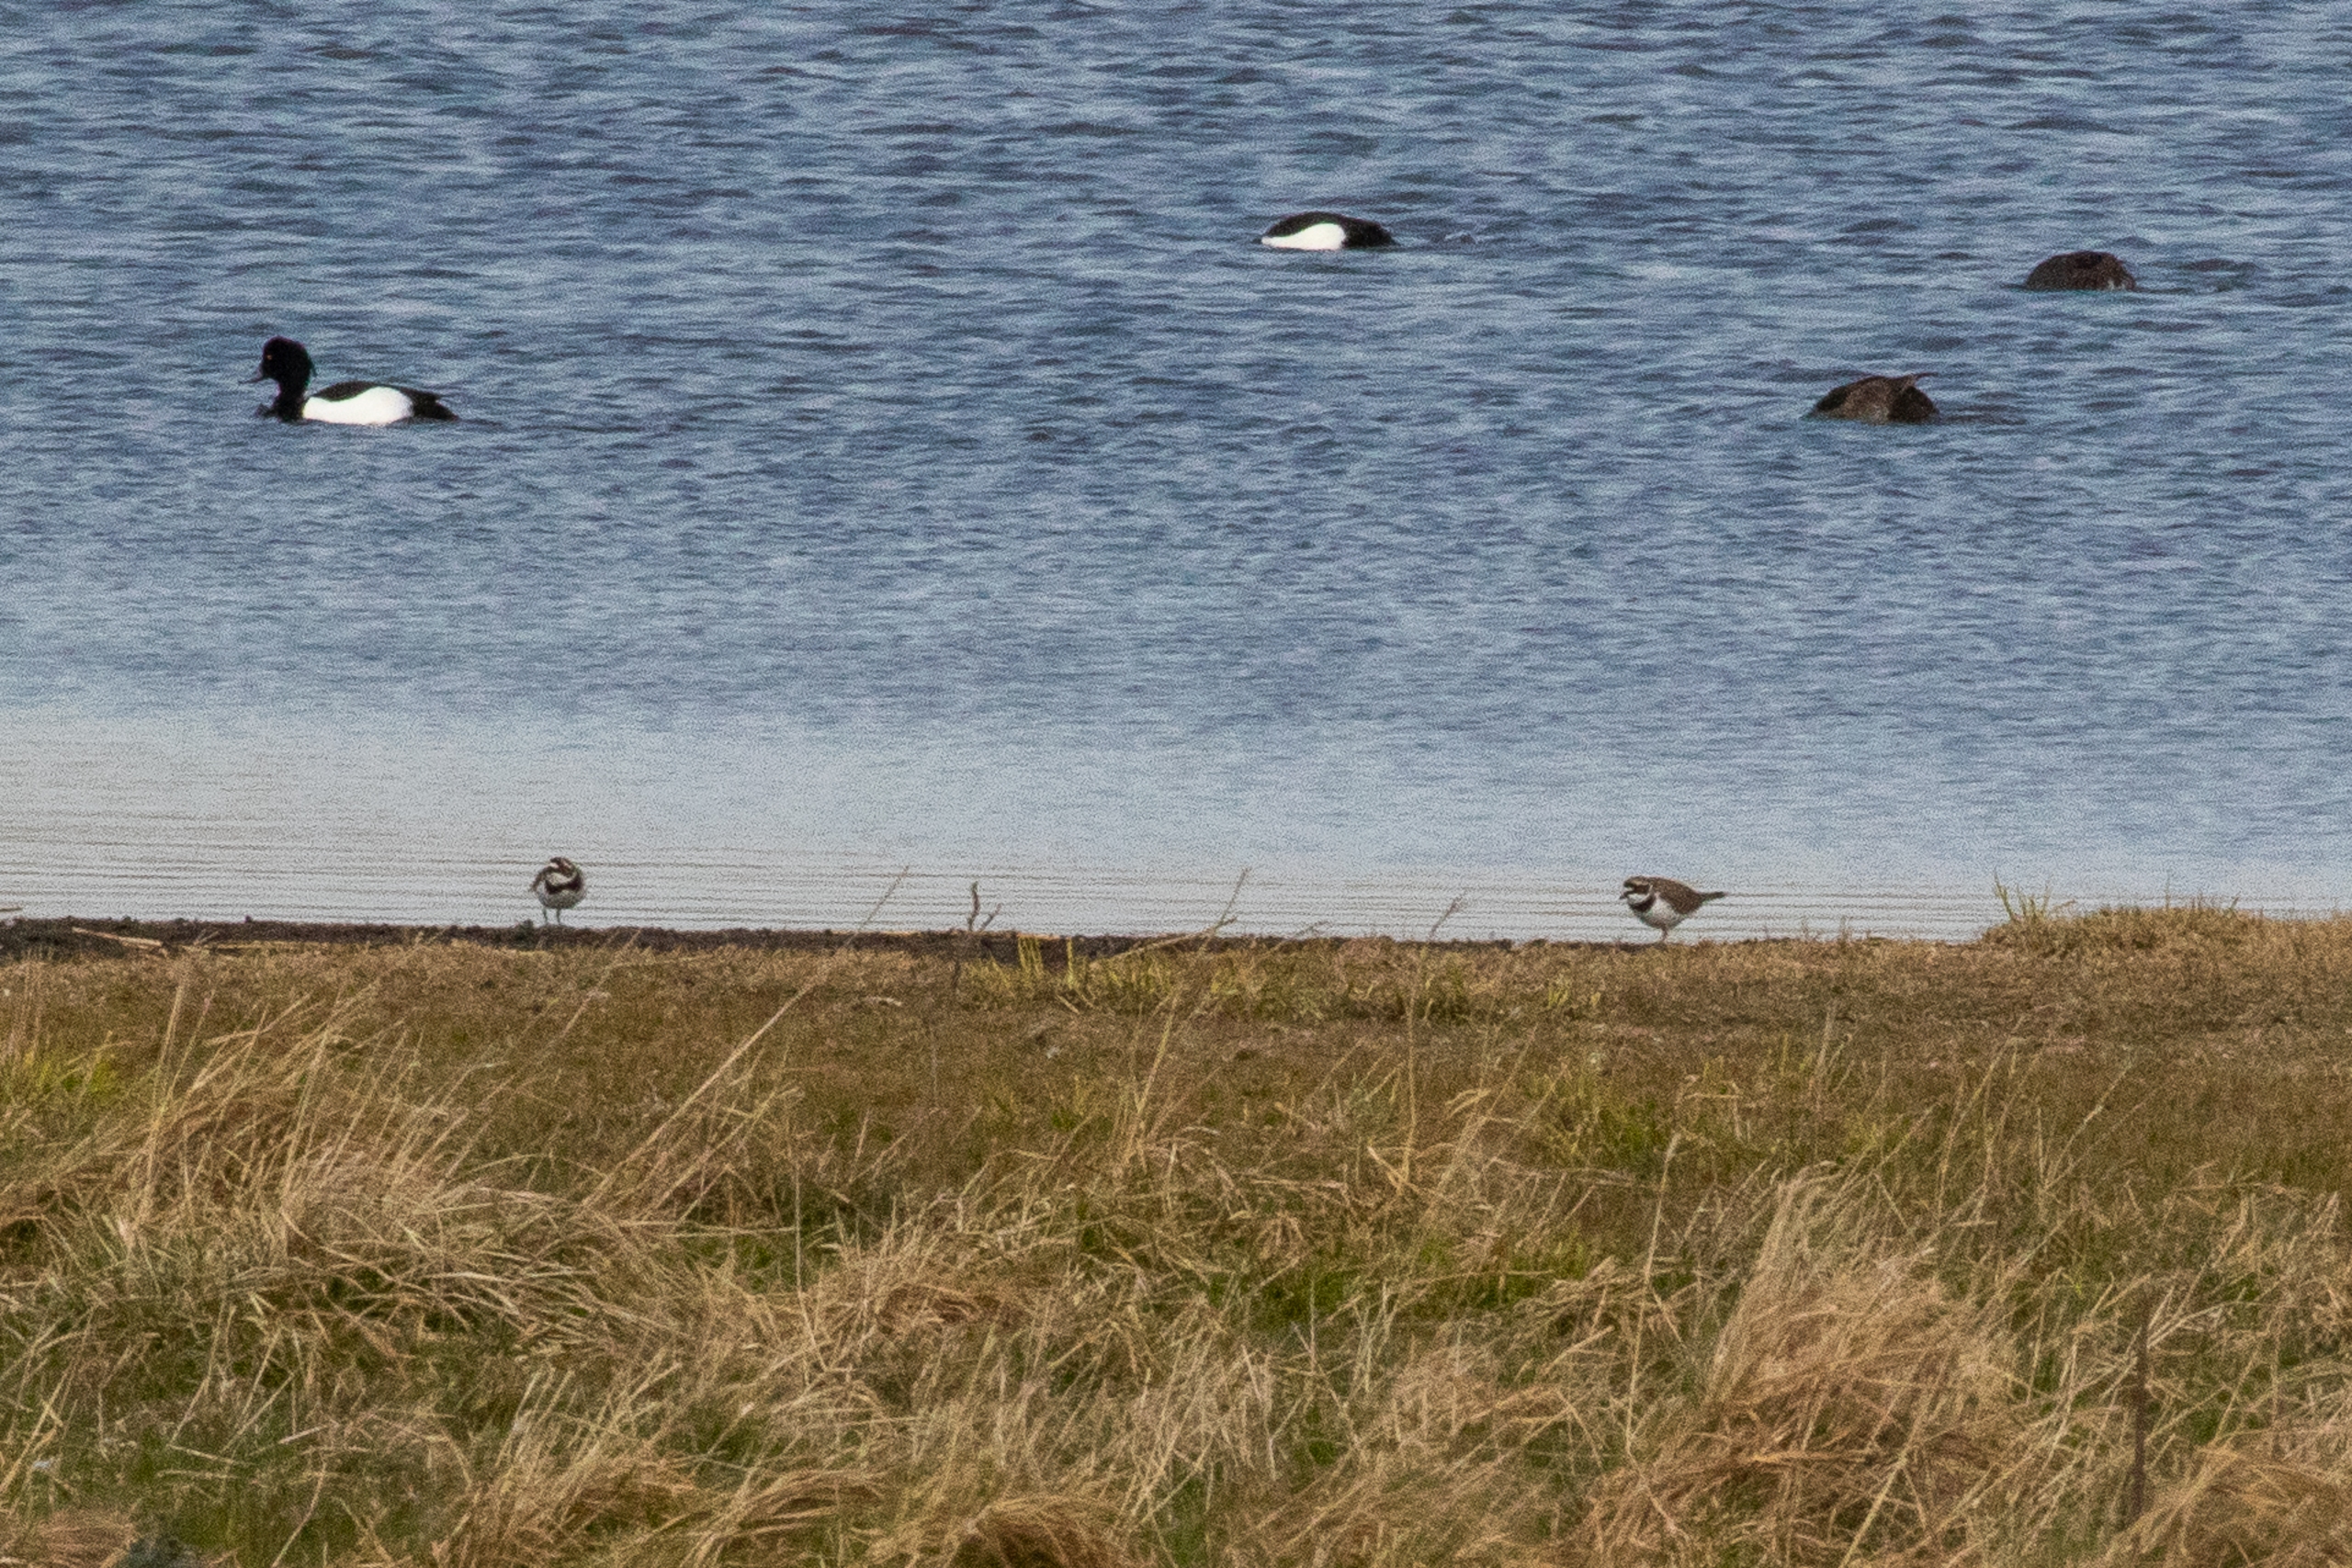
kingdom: Animalia
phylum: Chordata
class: Aves
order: Charadriiformes
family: Charadriidae
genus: Charadrius
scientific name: Charadrius hiaticula
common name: Stor præstekrave
